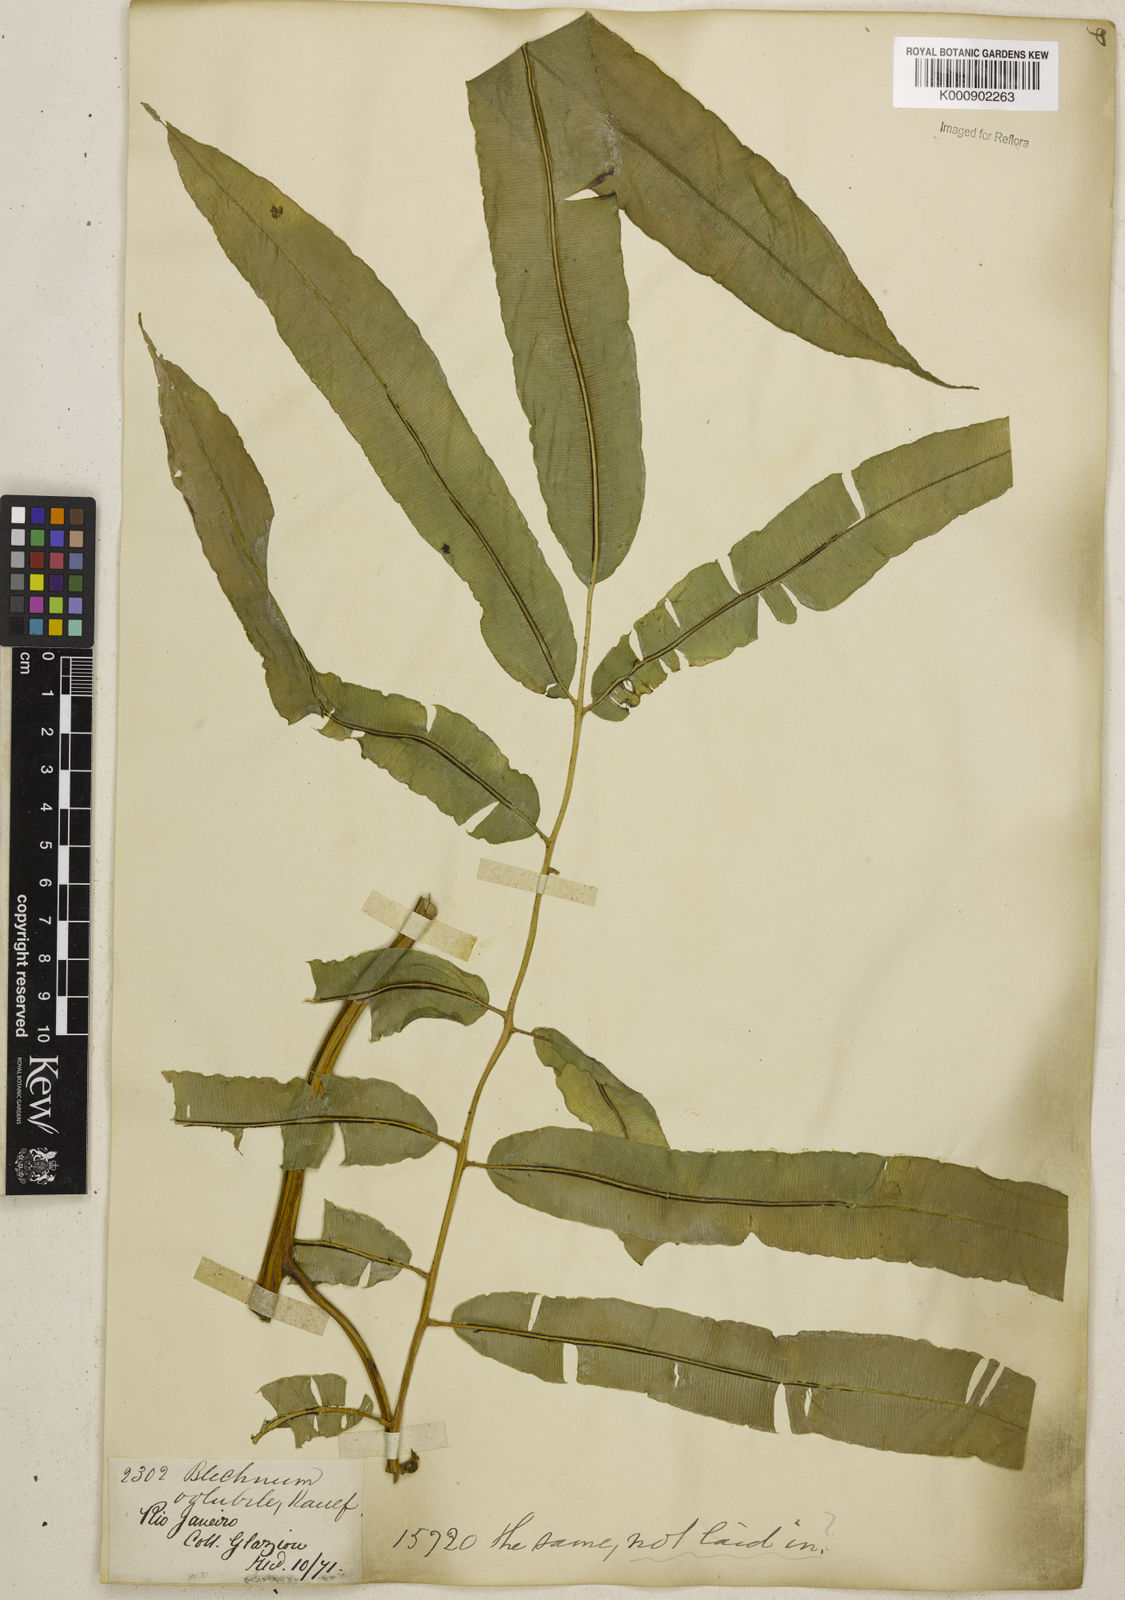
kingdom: Plantae
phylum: Tracheophyta
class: Polypodiopsida
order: Polypodiales
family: Blechnaceae
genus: Salpichlaena
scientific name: Salpichlaena volubilis
